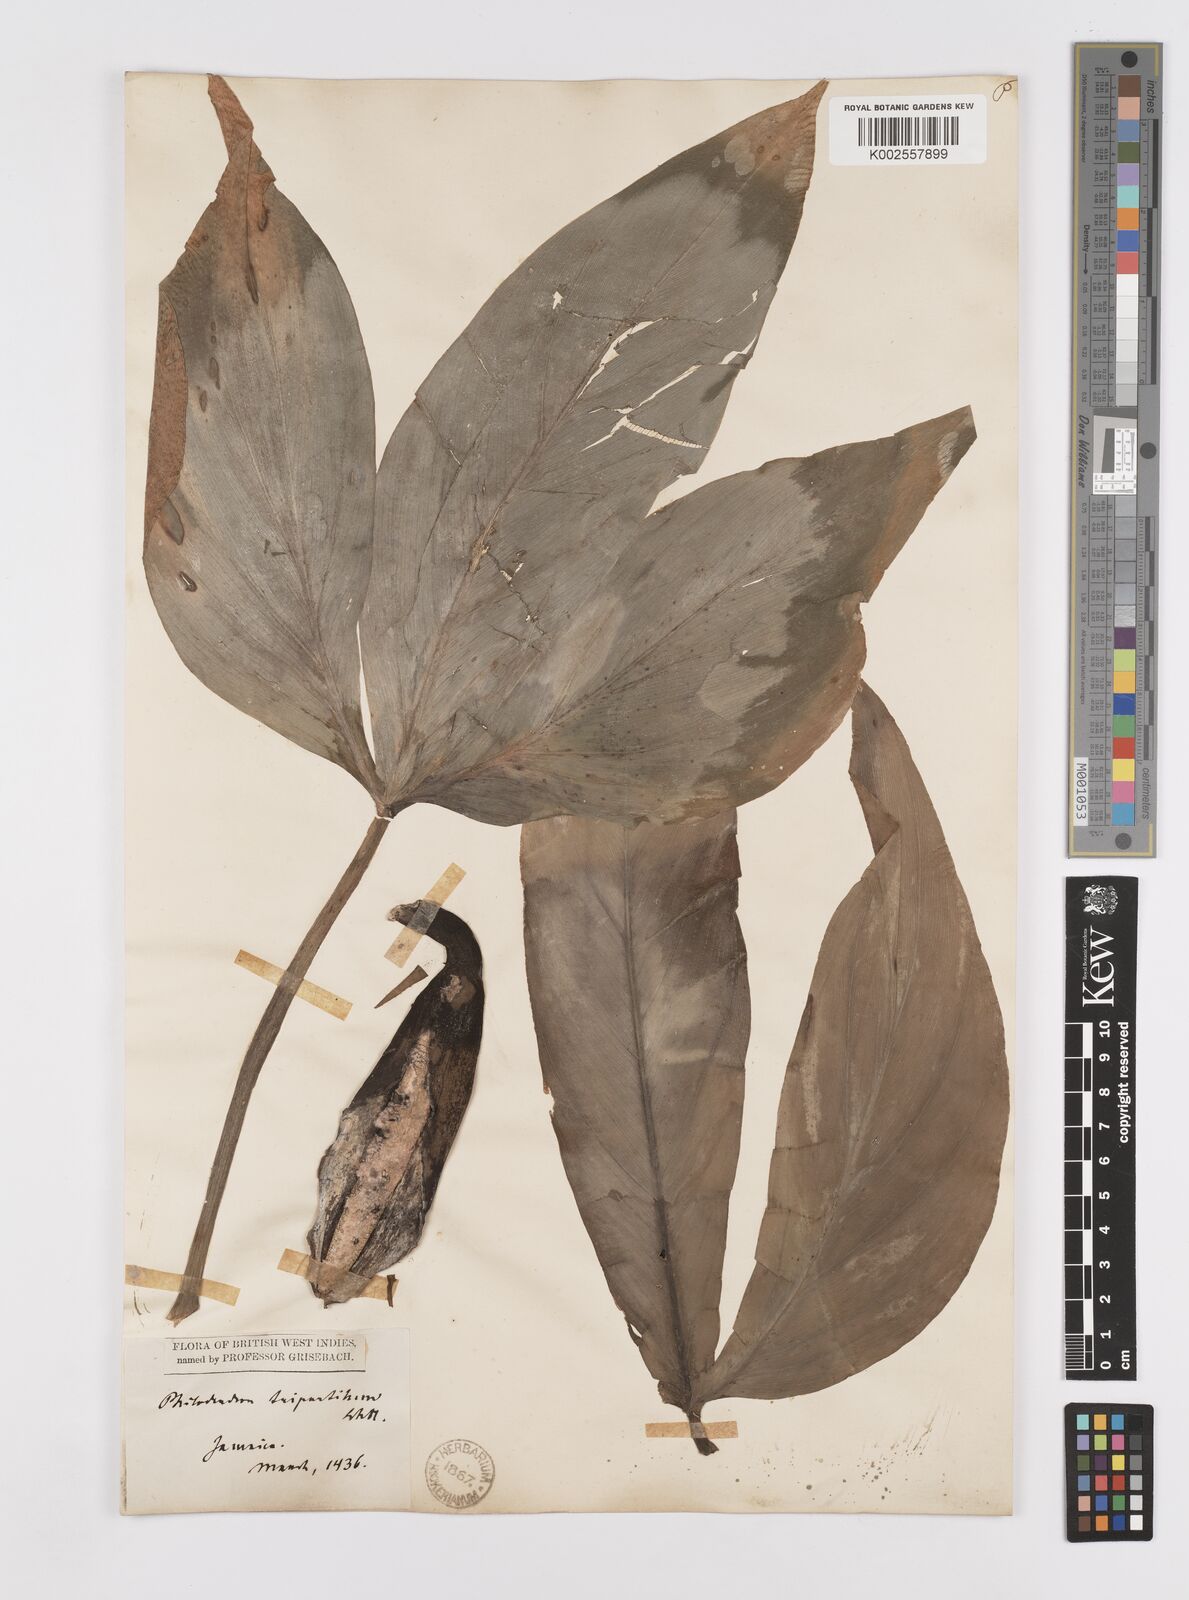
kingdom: Plantae
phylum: Tracheophyta
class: Liliopsida
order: Alismatales
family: Araceae
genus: Philodendron
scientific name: Philodendron tripartitum
